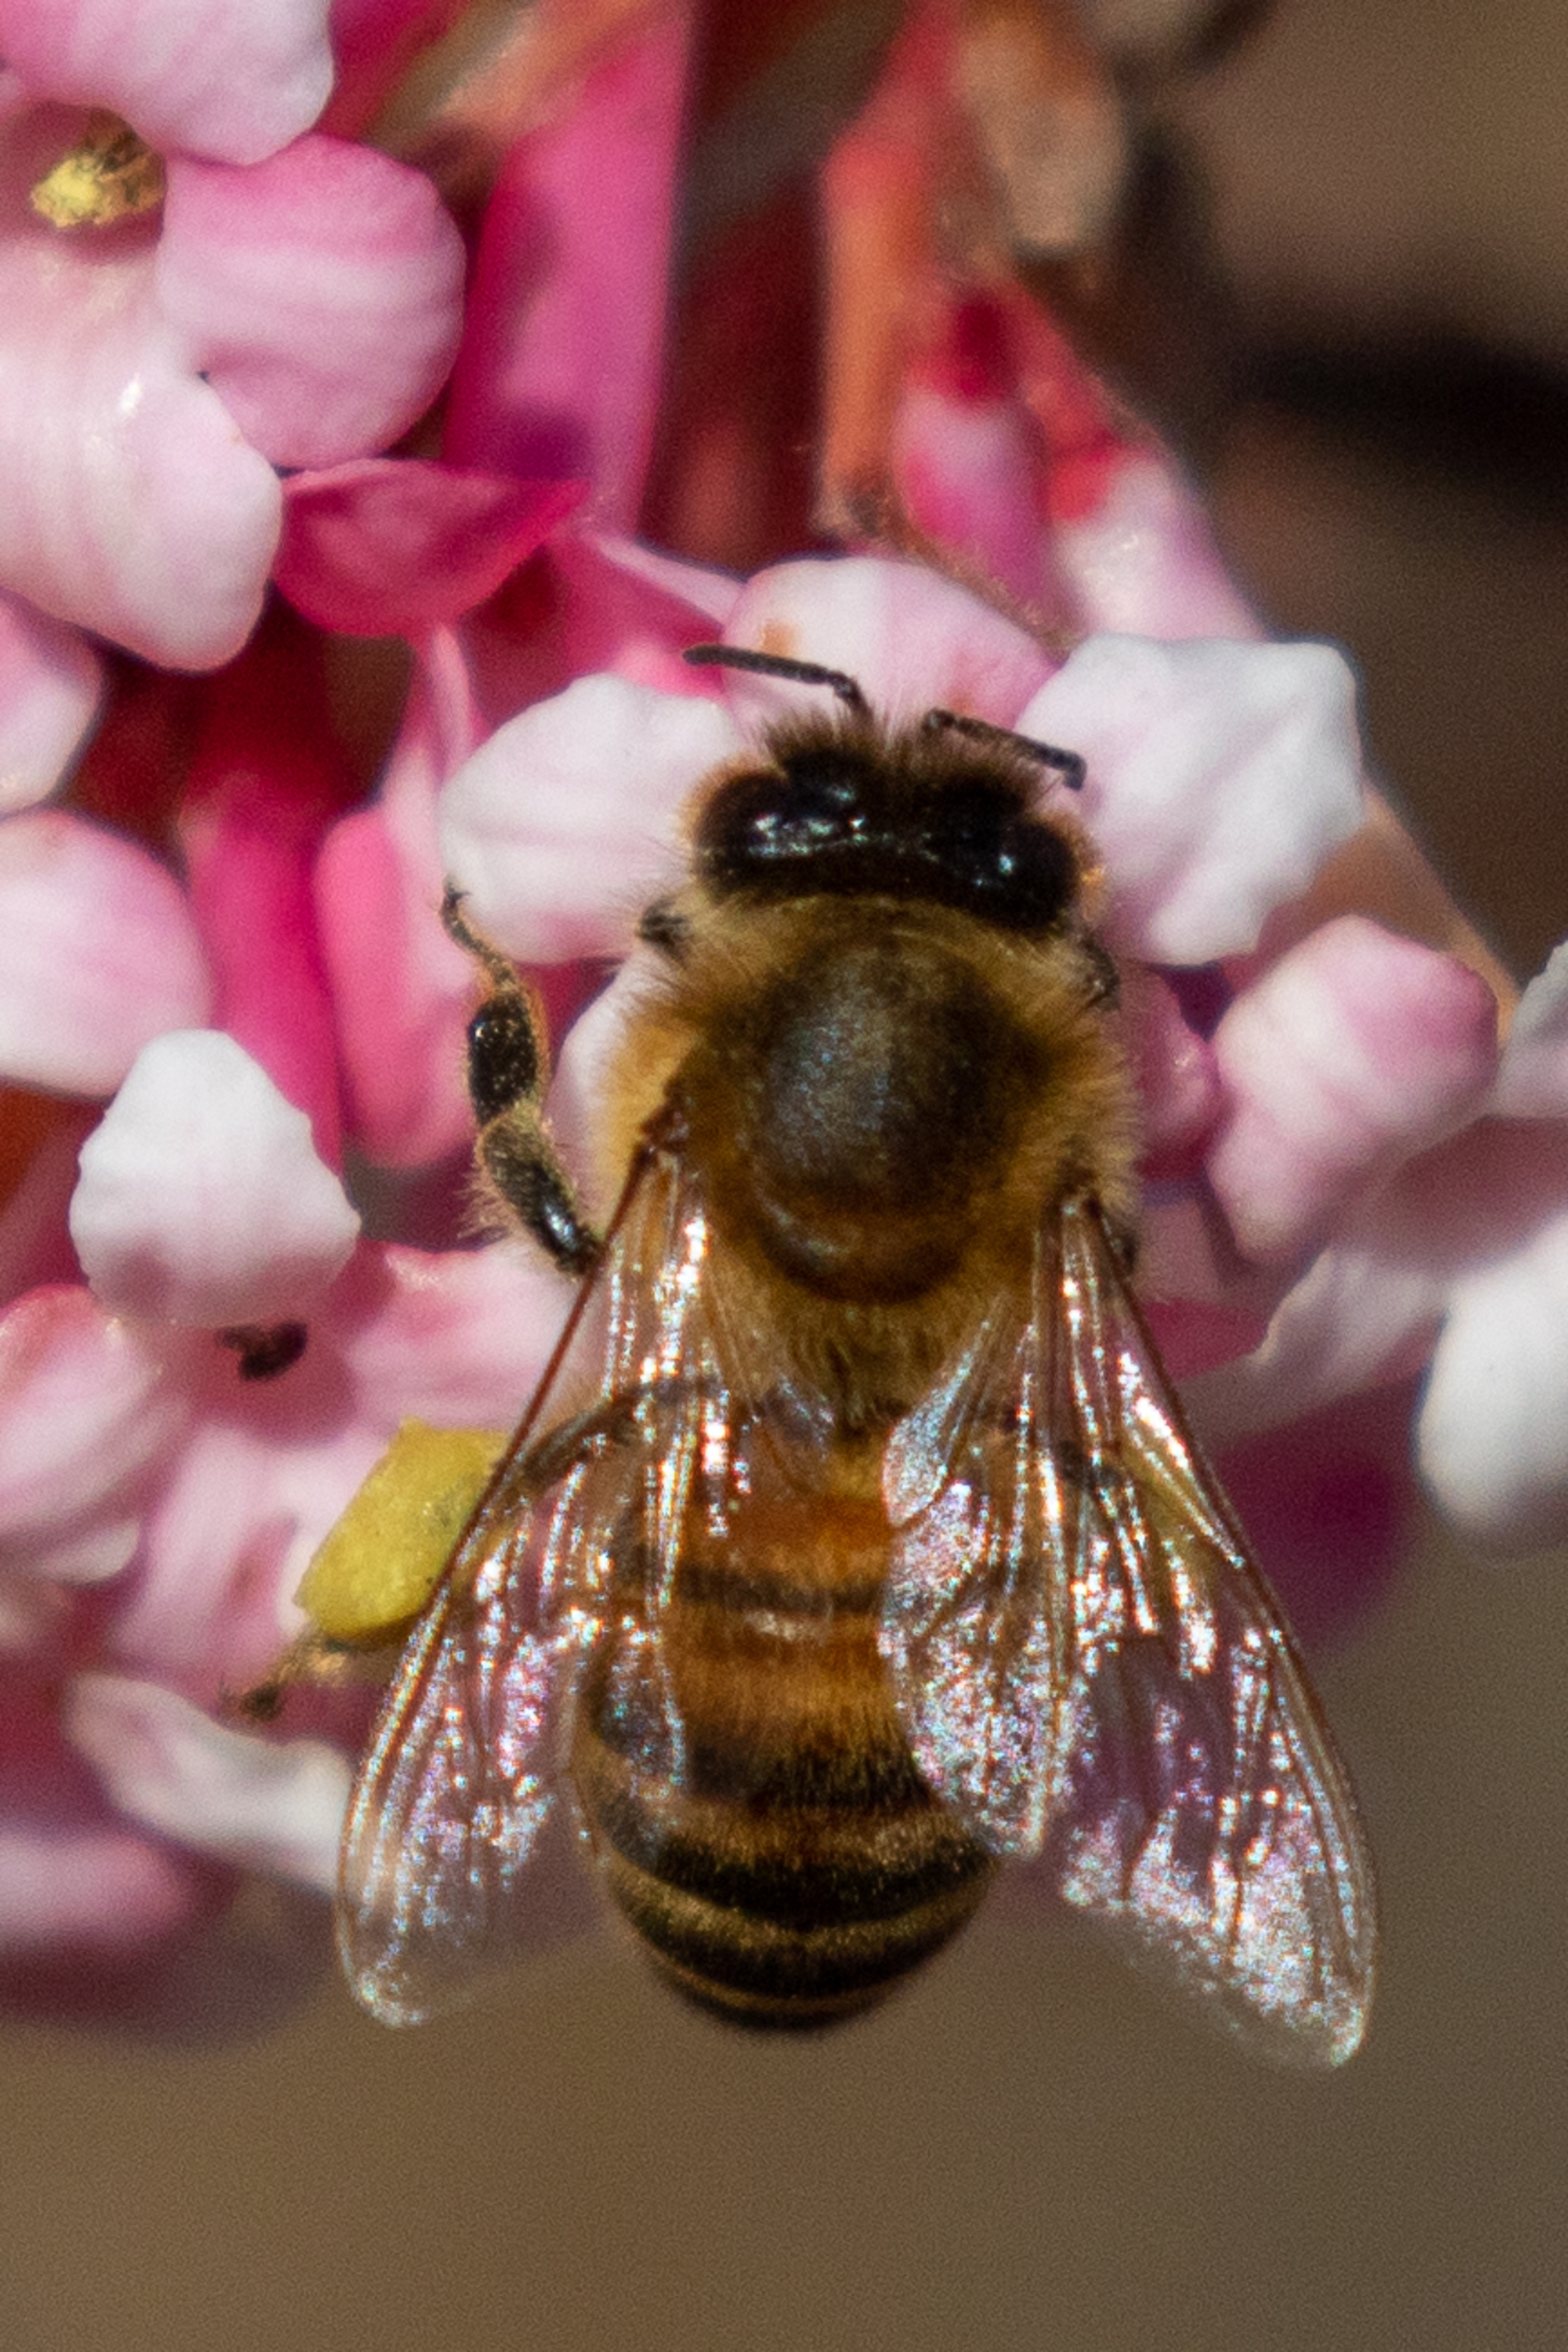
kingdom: Animalia
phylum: Arthropoda
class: Insecta
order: Hymenoptera
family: Apidae
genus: Apis
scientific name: Apis mellifera
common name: Honningbi
